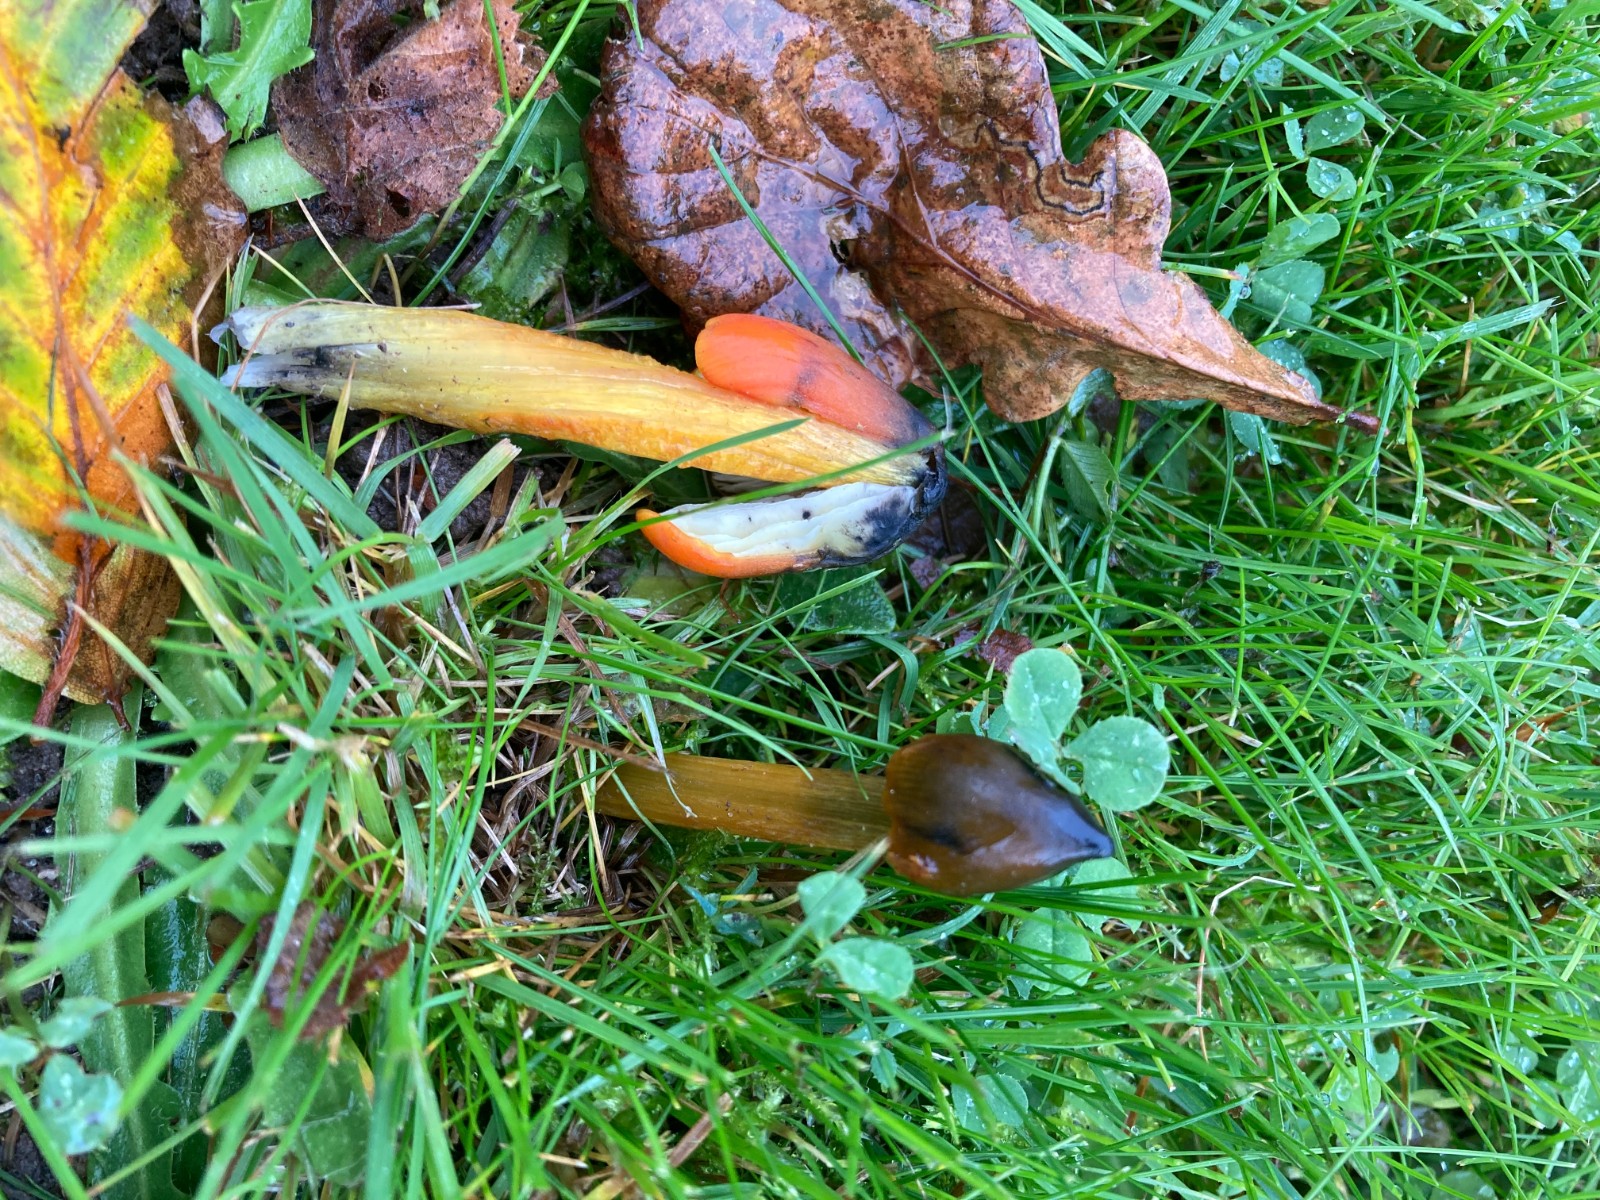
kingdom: Fungi
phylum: Basidiomycota
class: Agaricomycetes
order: Agaricales
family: Hygrophoraceae
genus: Hygrocybe
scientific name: Hygrocybe conica
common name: kegle-vokshat
